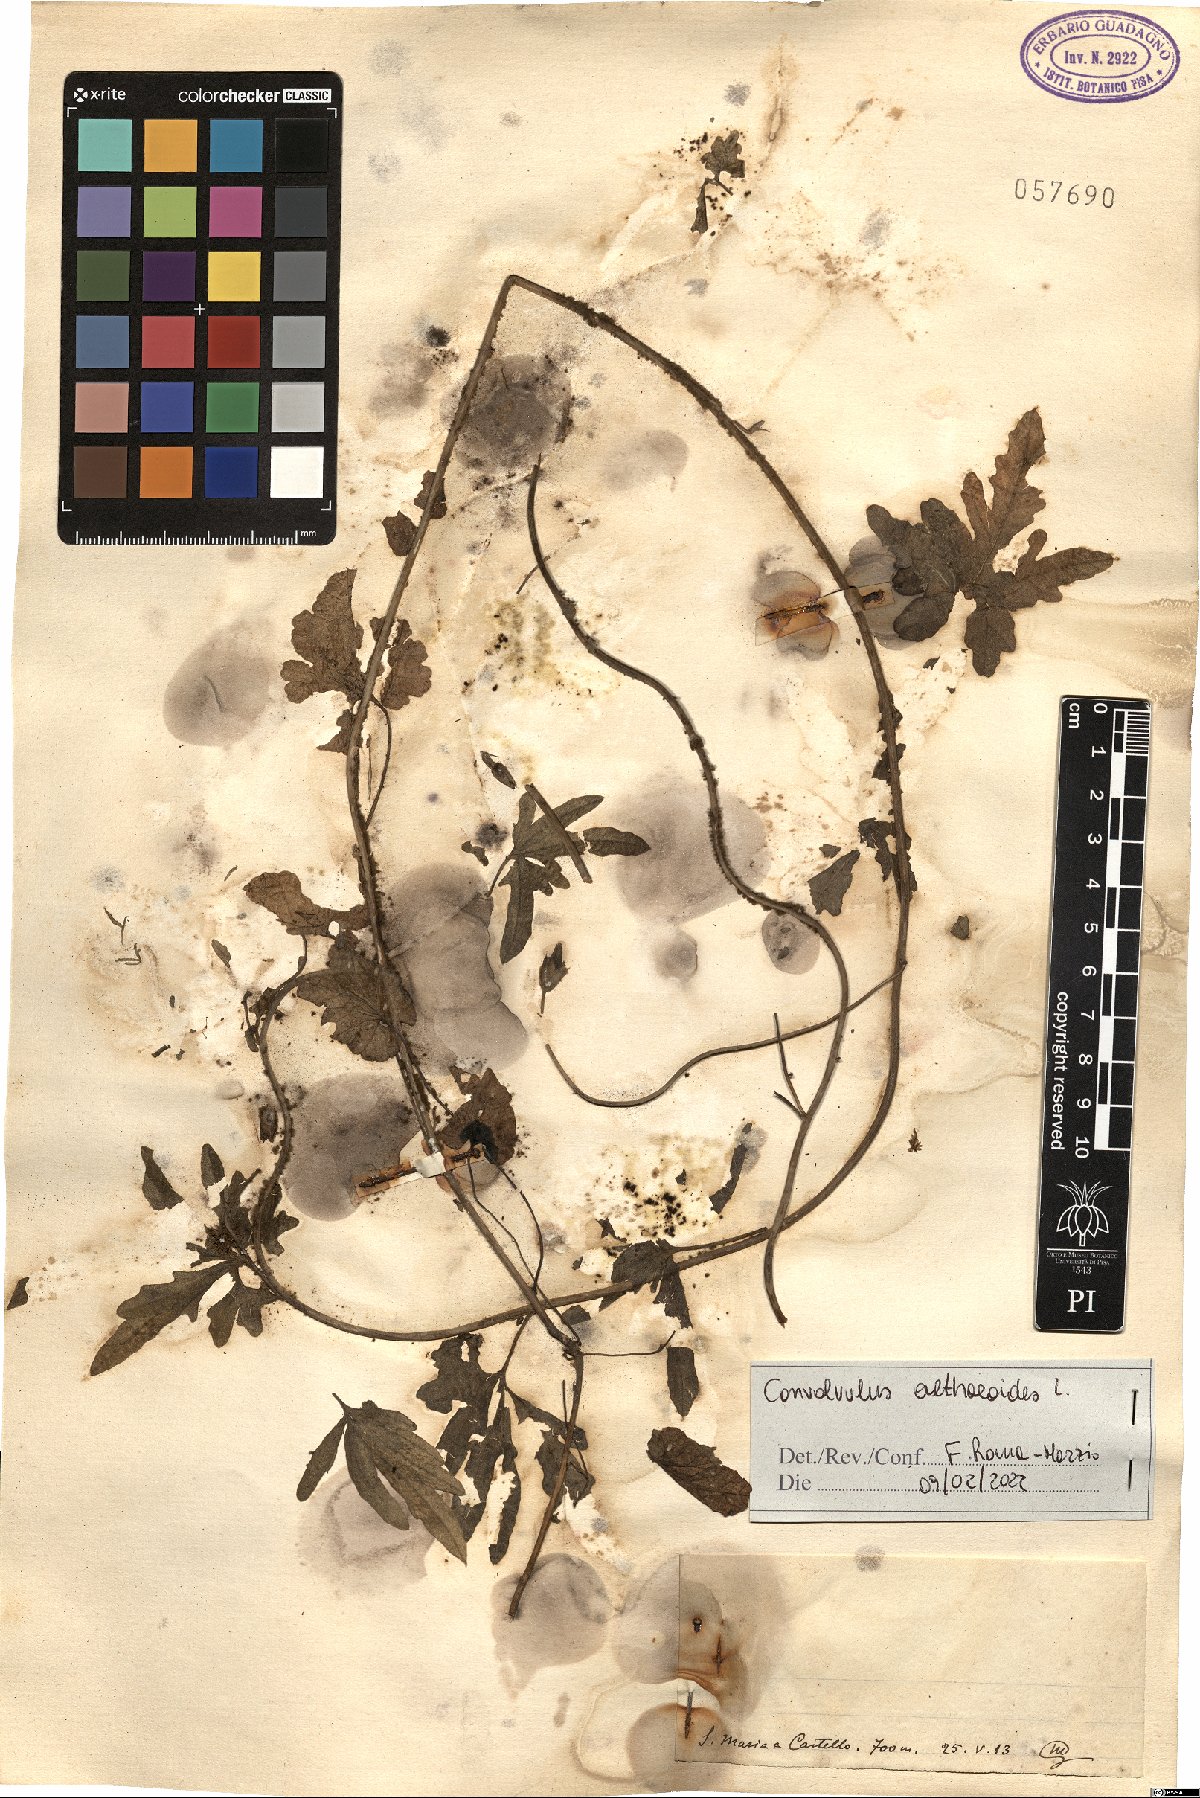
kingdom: Plantae
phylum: Tracheophyta
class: Magnoliopsida
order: Solanales
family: Convolvulaceae
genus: Convolvulus
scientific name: Convolvulus althaeoides
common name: Mallow bindweed
